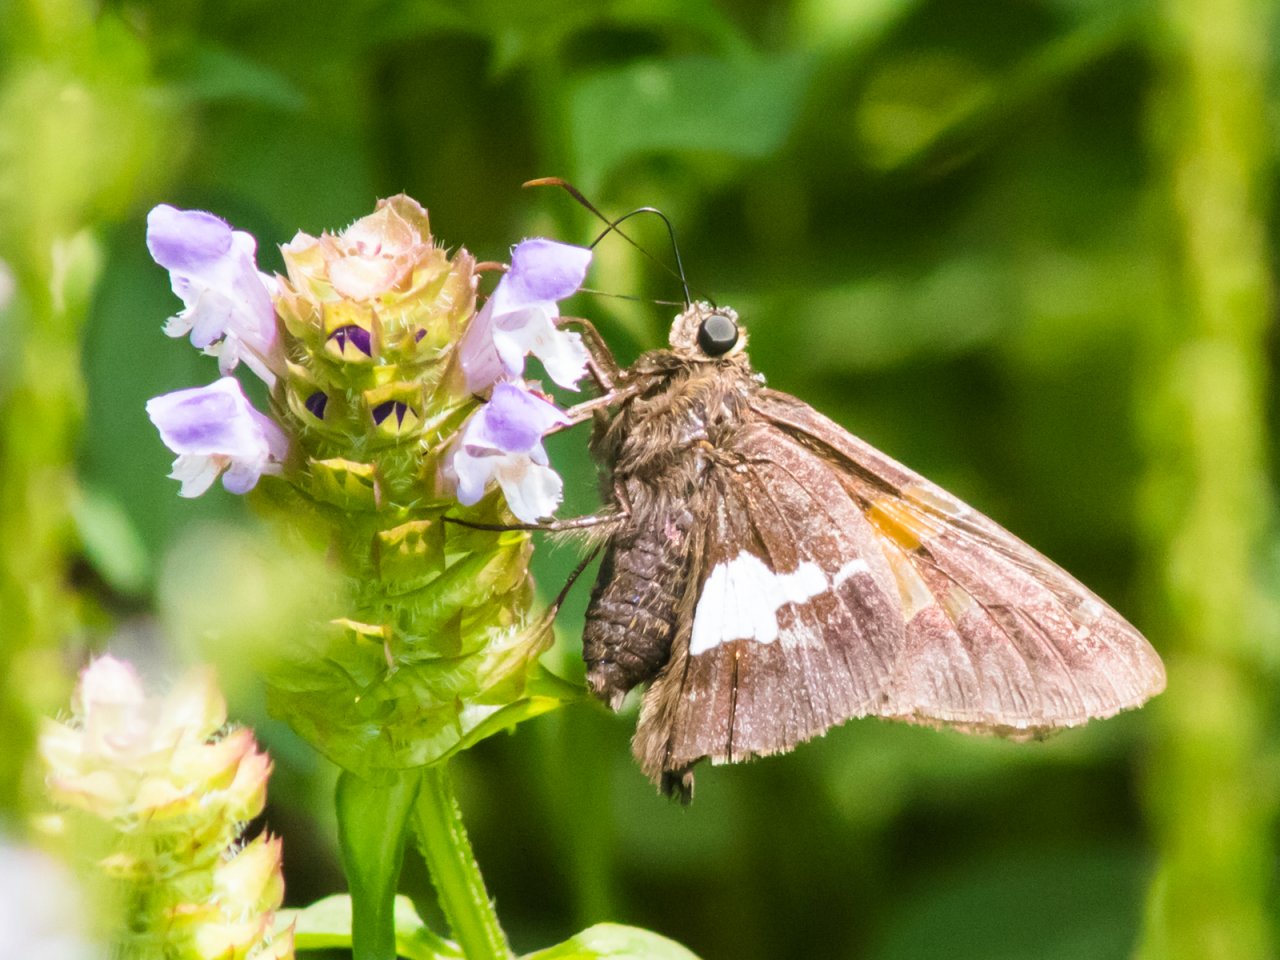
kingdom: Animalia
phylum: Arthropoda
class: Insecta
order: Lepidoptera
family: Hesperiidae
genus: Epargyreus
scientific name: Epargyreus clarus
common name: Silver-spotted Skipper
